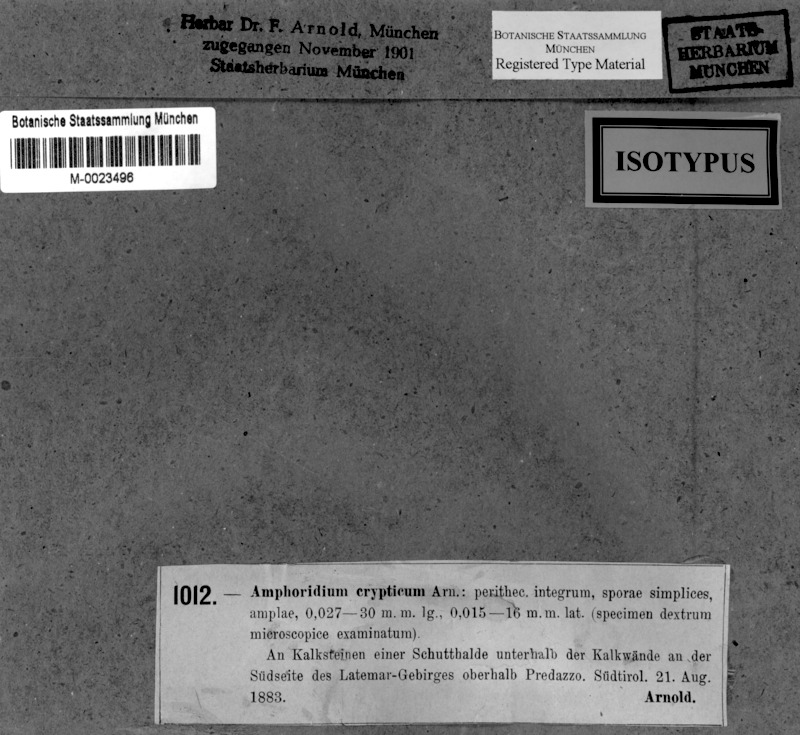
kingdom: Fungi
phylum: Ascomycota
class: Eurotiomycetes
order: Verrucariales
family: Verrucariaceae
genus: Verrucaria
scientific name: Verrucaria cryptica
